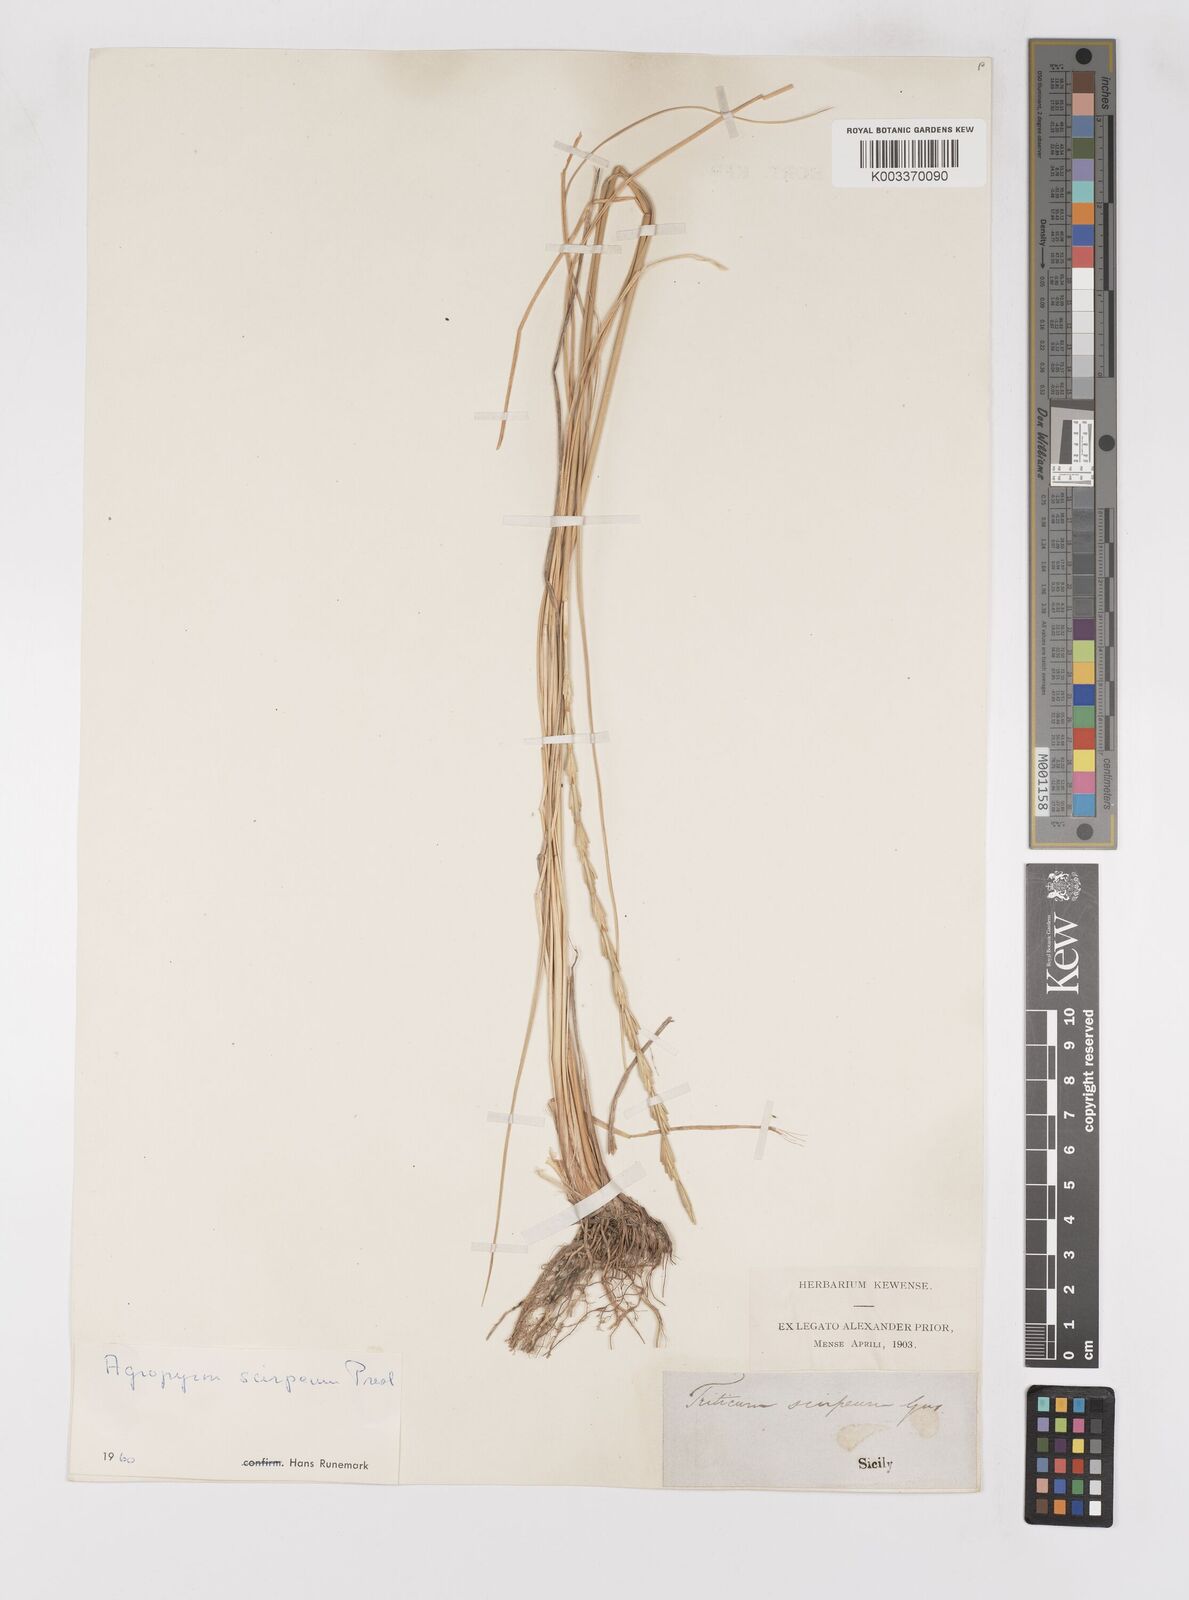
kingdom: Plantae
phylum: Tracheophyta
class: Liliopsida
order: Poales
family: Poaceae
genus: Thinopyrum
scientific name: Thinopyrum elongatum
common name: Tall wheatgrass
